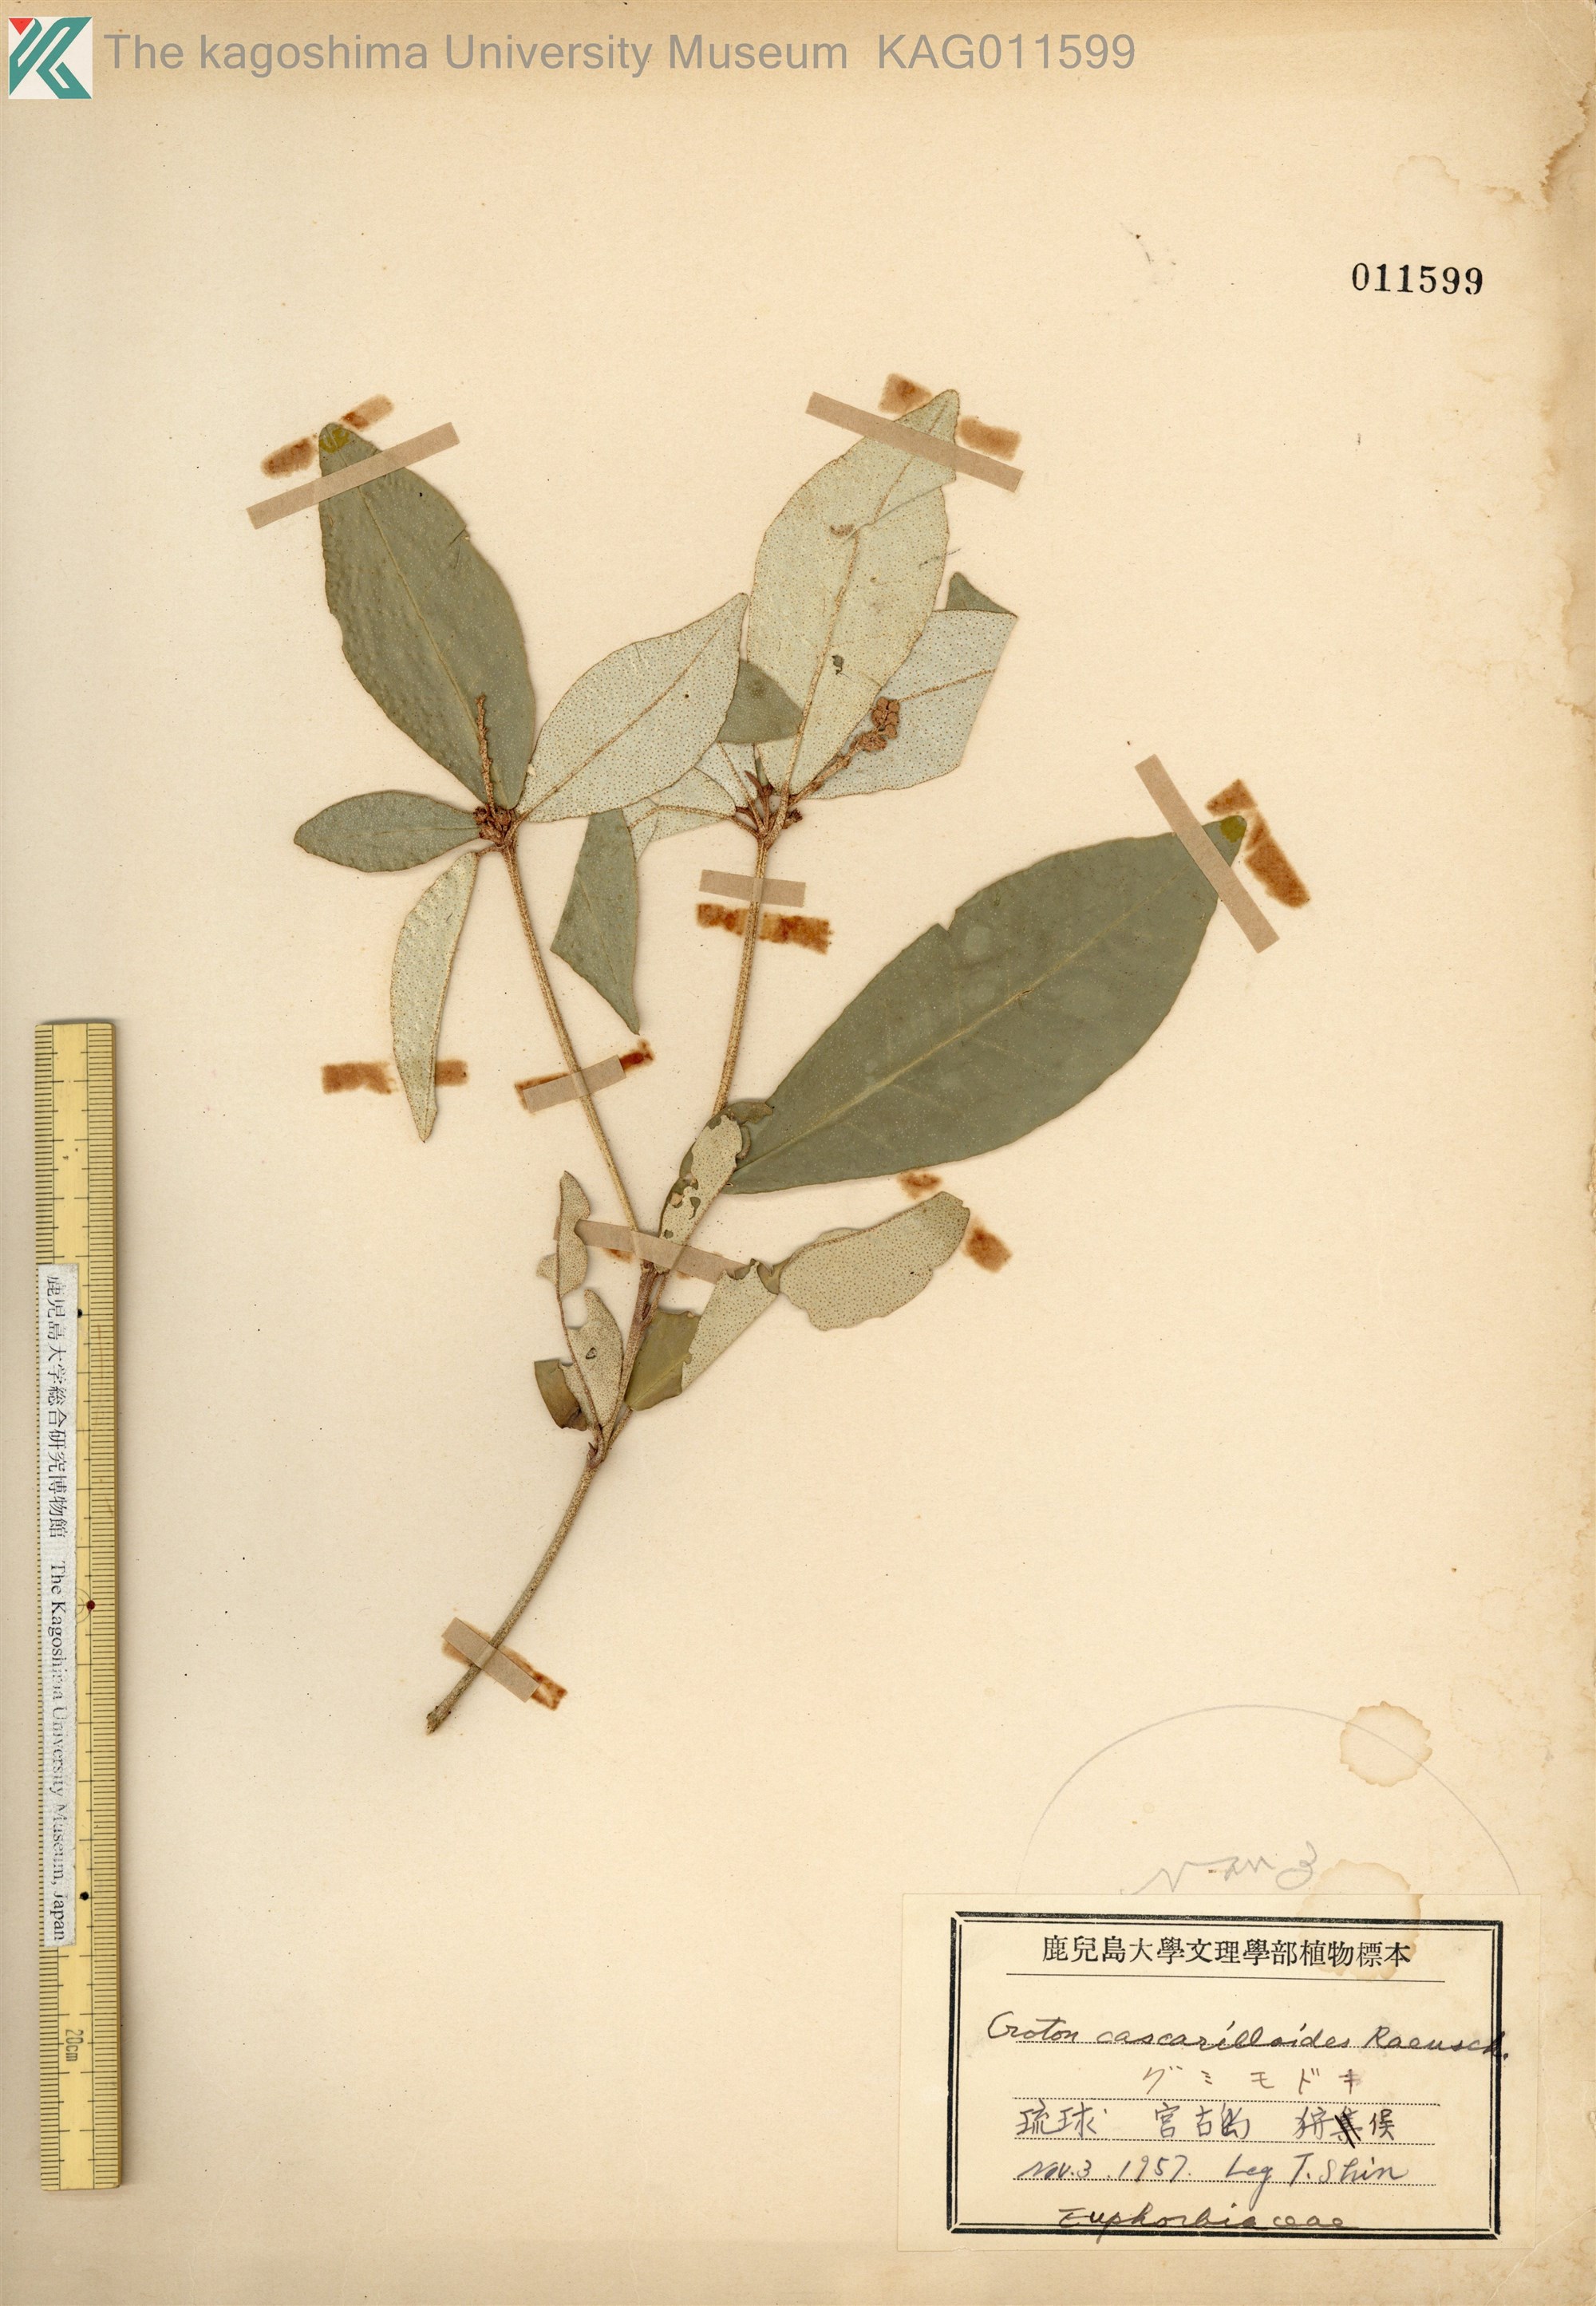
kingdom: Plantae
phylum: Tracheophyta
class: Magnoliopsida
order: Malpighiales
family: Euphorbiaceae
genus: Croton
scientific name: Croton cascarilloides
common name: グミモドキ
